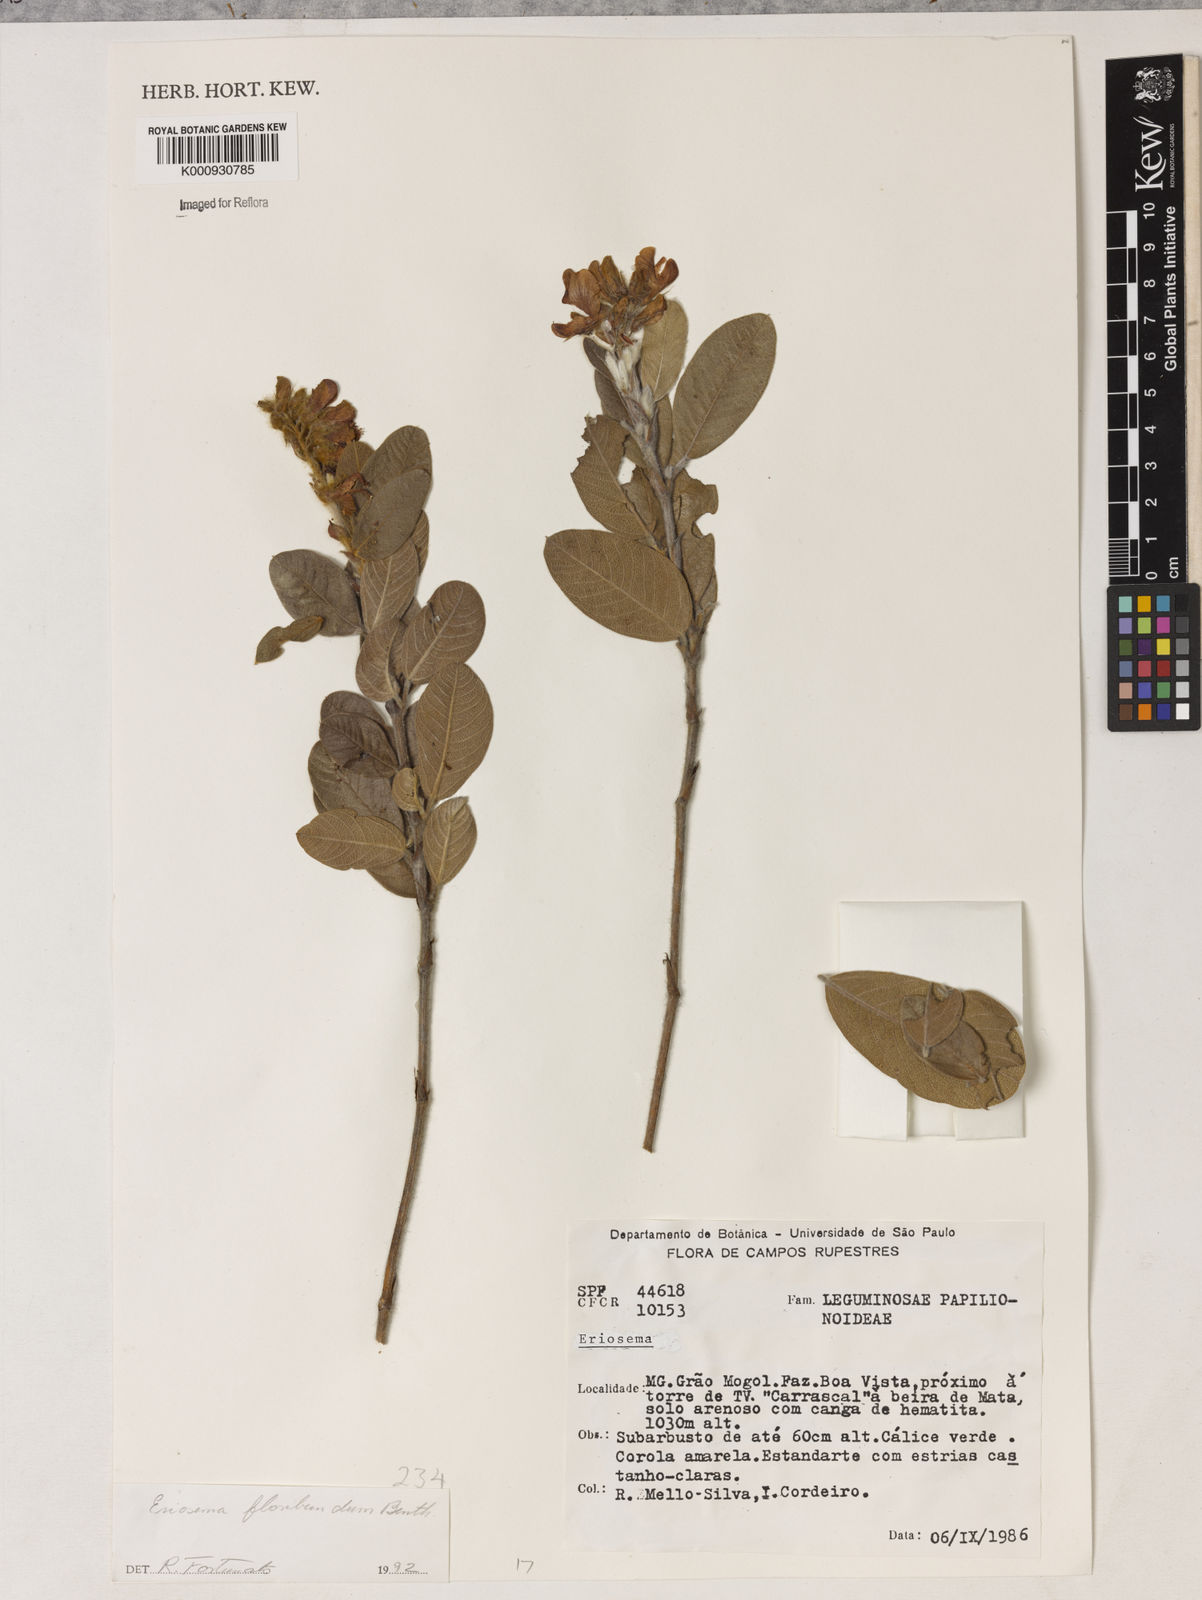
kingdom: Plantae
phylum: Tracheophyta
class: Magnoliopsida
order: Fabales
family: Fabaceae
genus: Eriosema
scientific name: Eriosema floribundum
